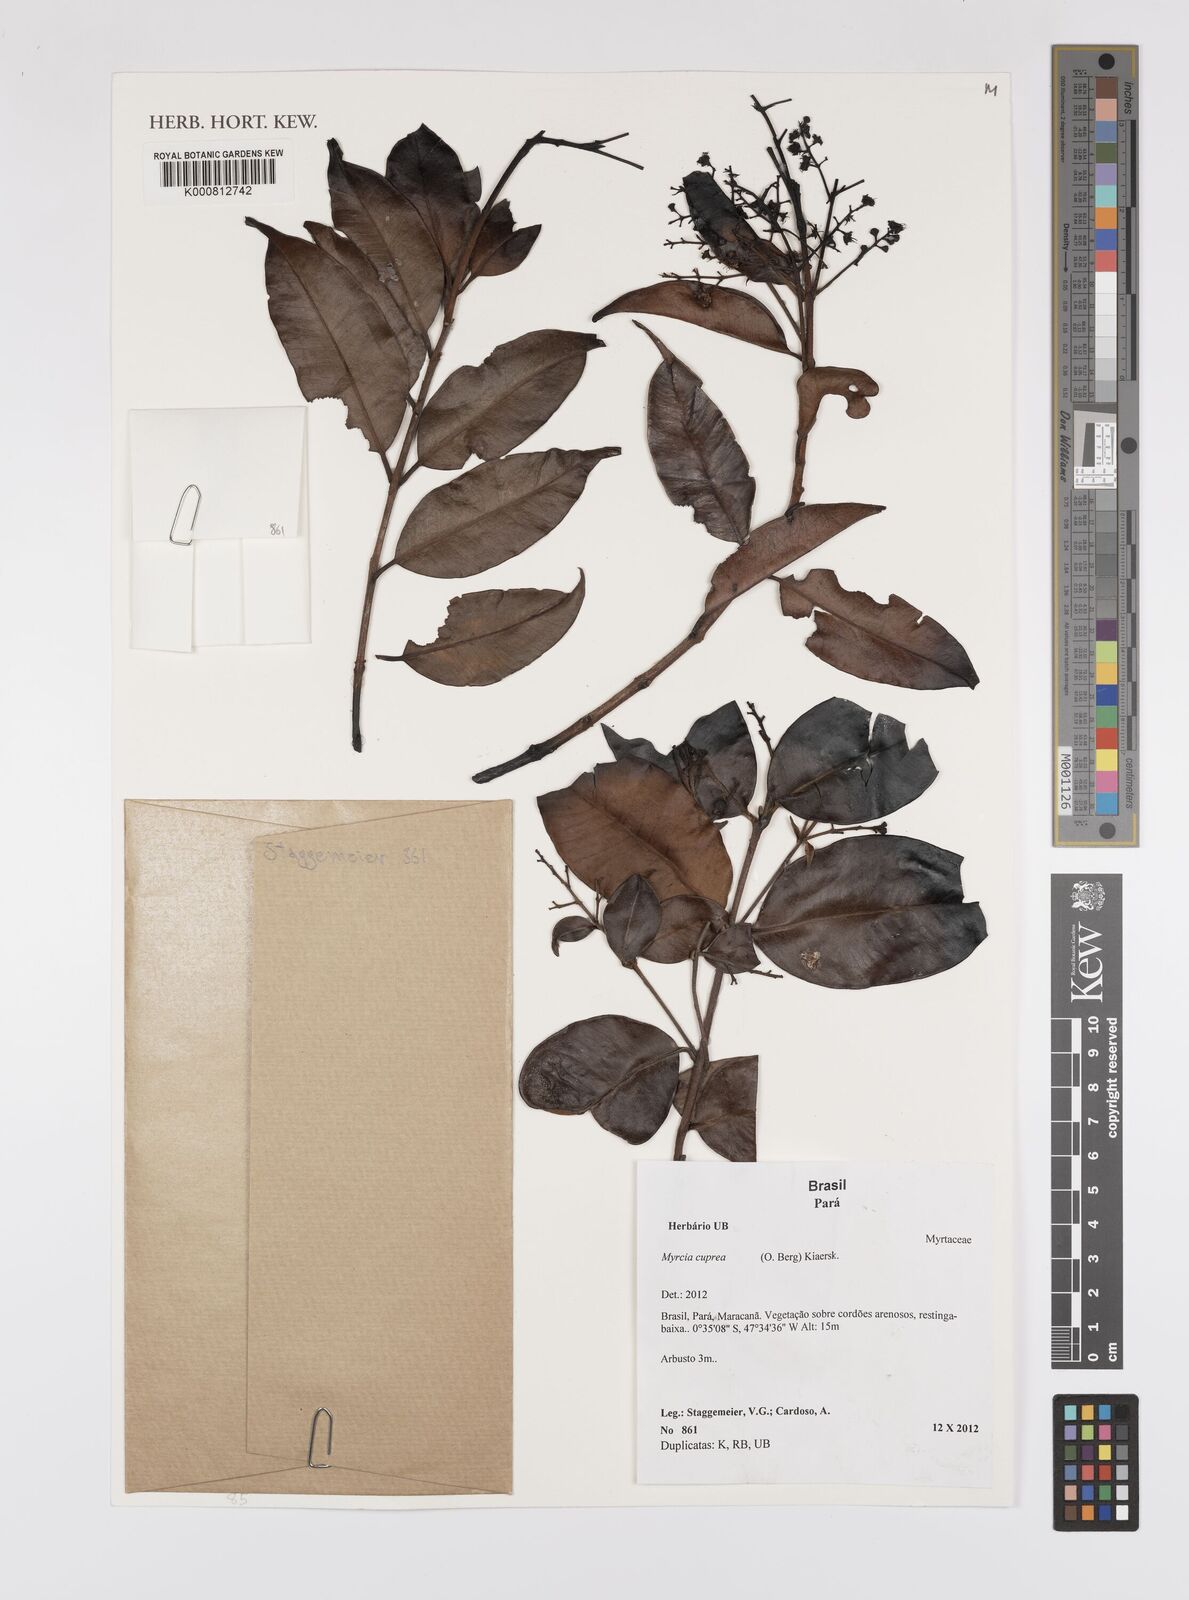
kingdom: Plantae
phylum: Tracheophyta
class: Magnoliopsida
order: Myrtales
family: Myrtaceae
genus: Myrcia
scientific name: Myrcia cuprea
